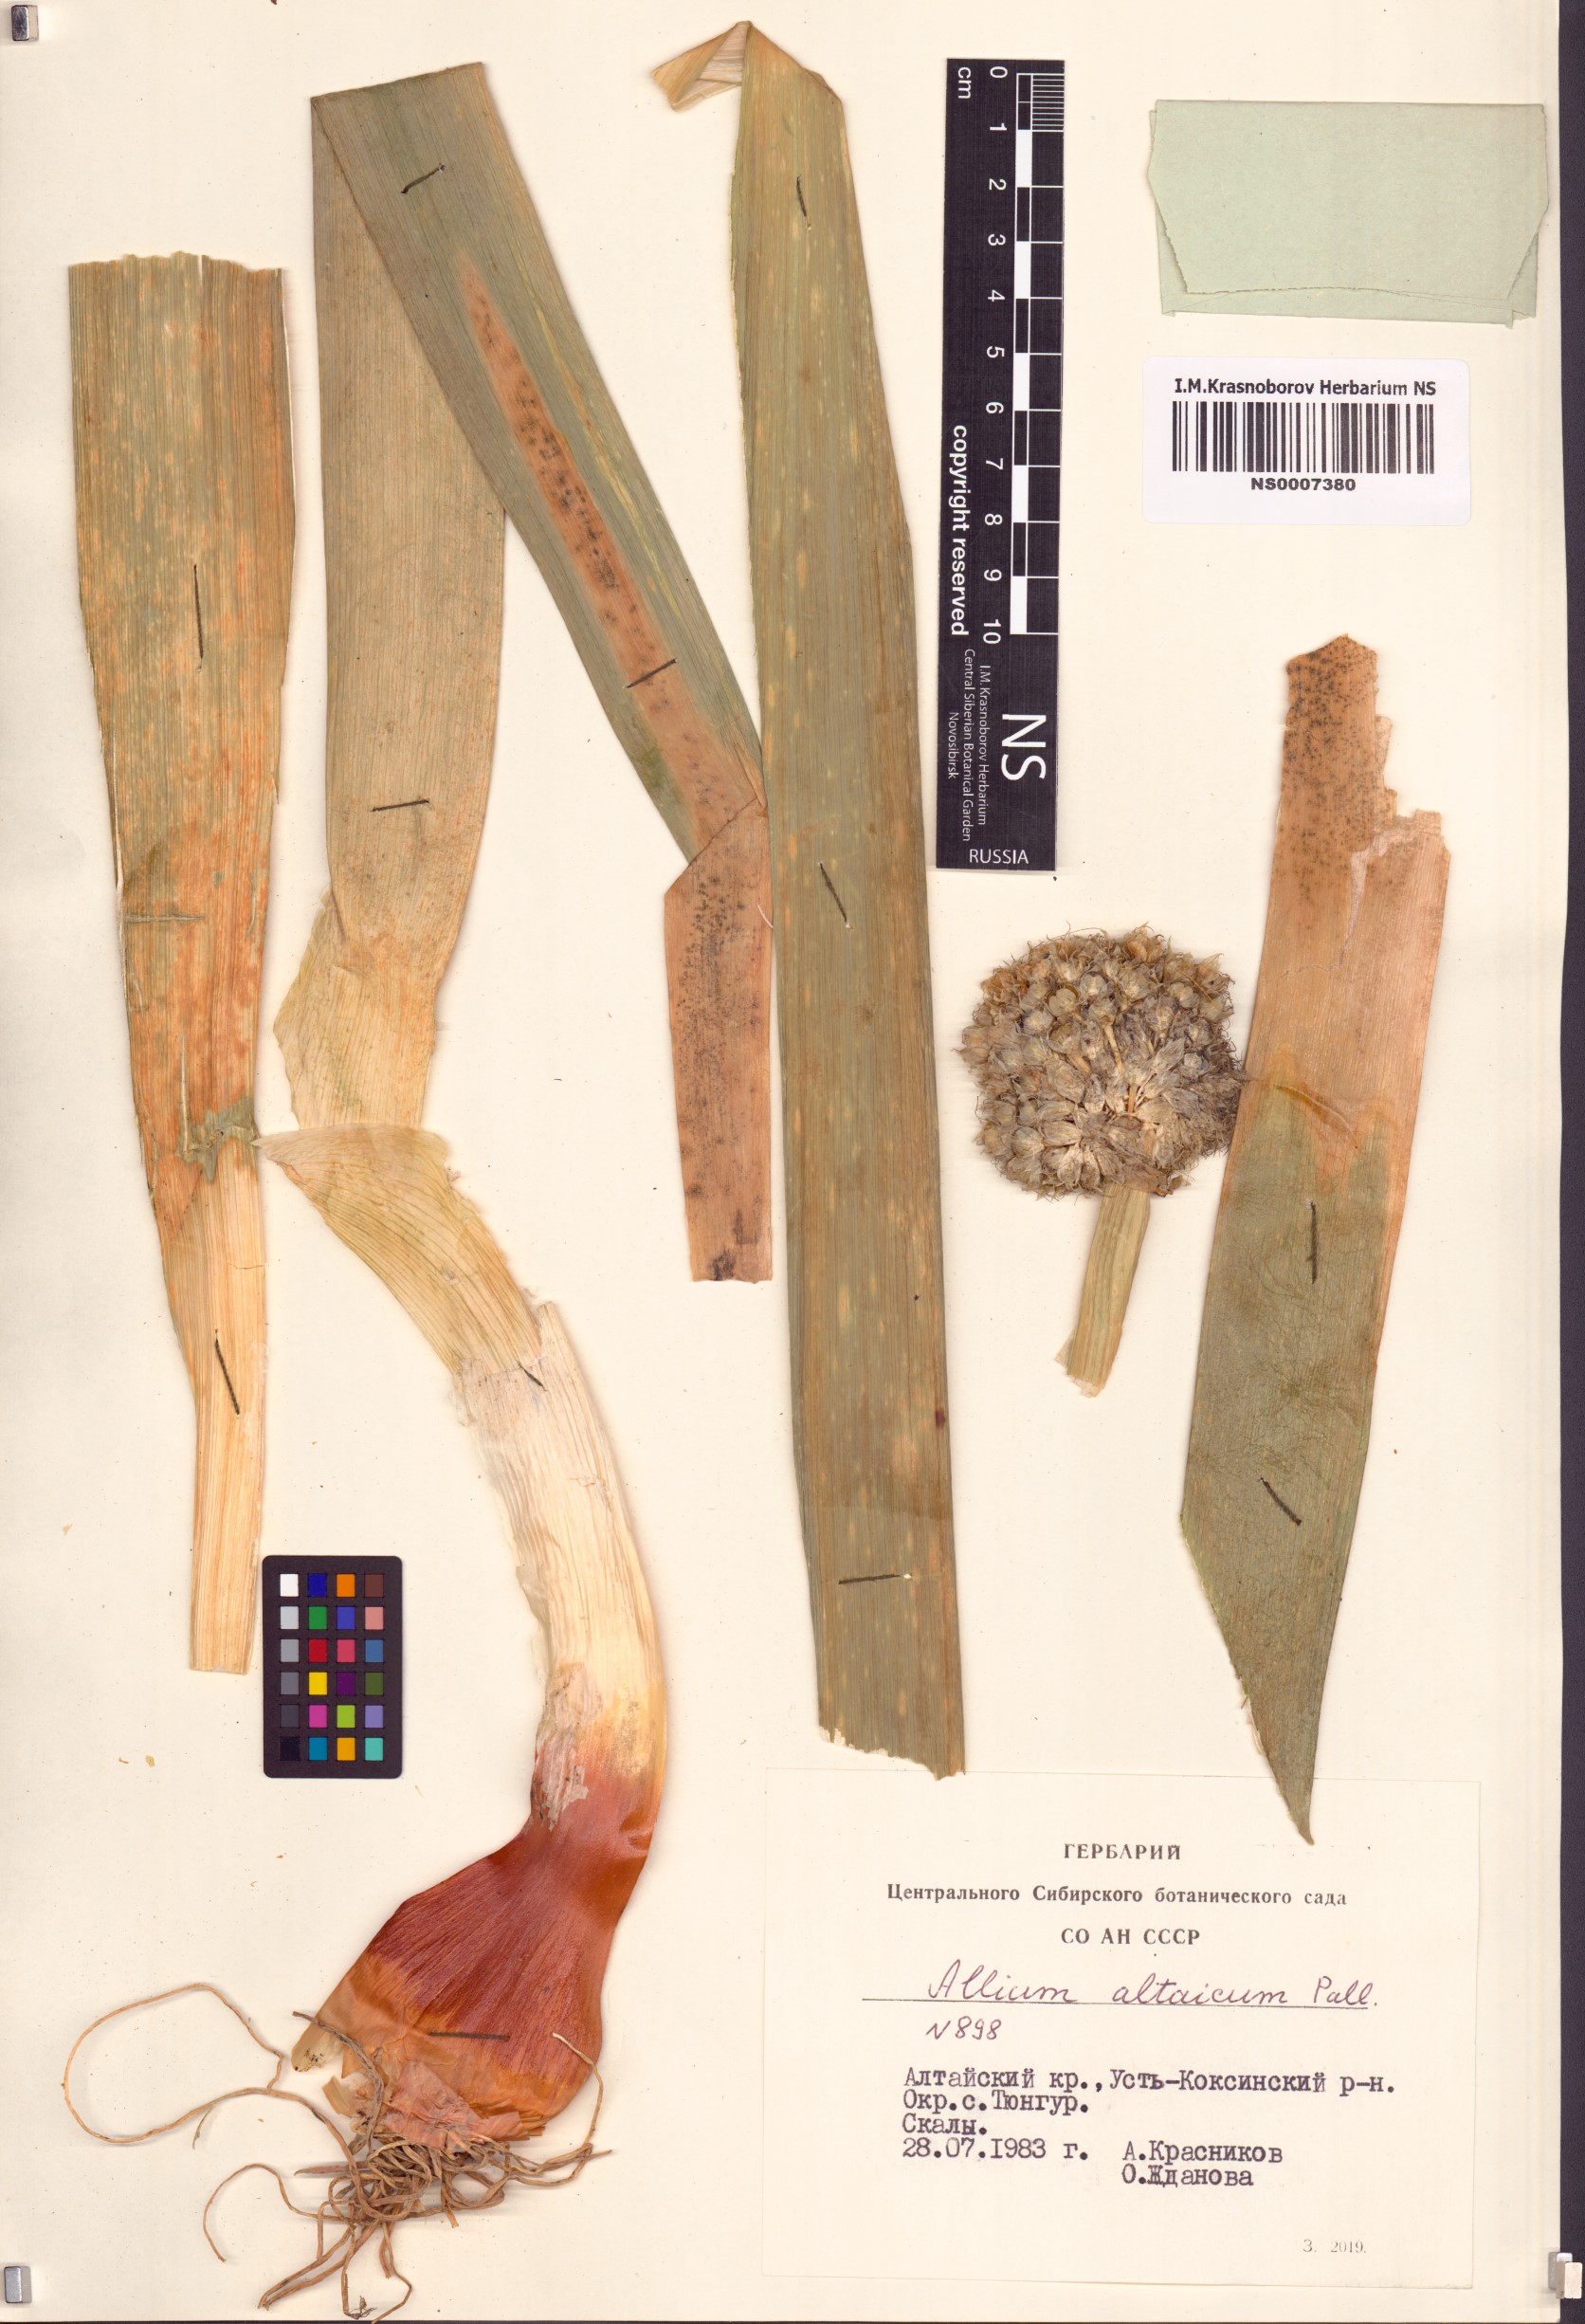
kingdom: Plantae
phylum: Tracheophyta
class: Liliopsida
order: Asparagales
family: Amaryllidaceae
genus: Allium
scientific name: Allium altaicum
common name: Altai onion
